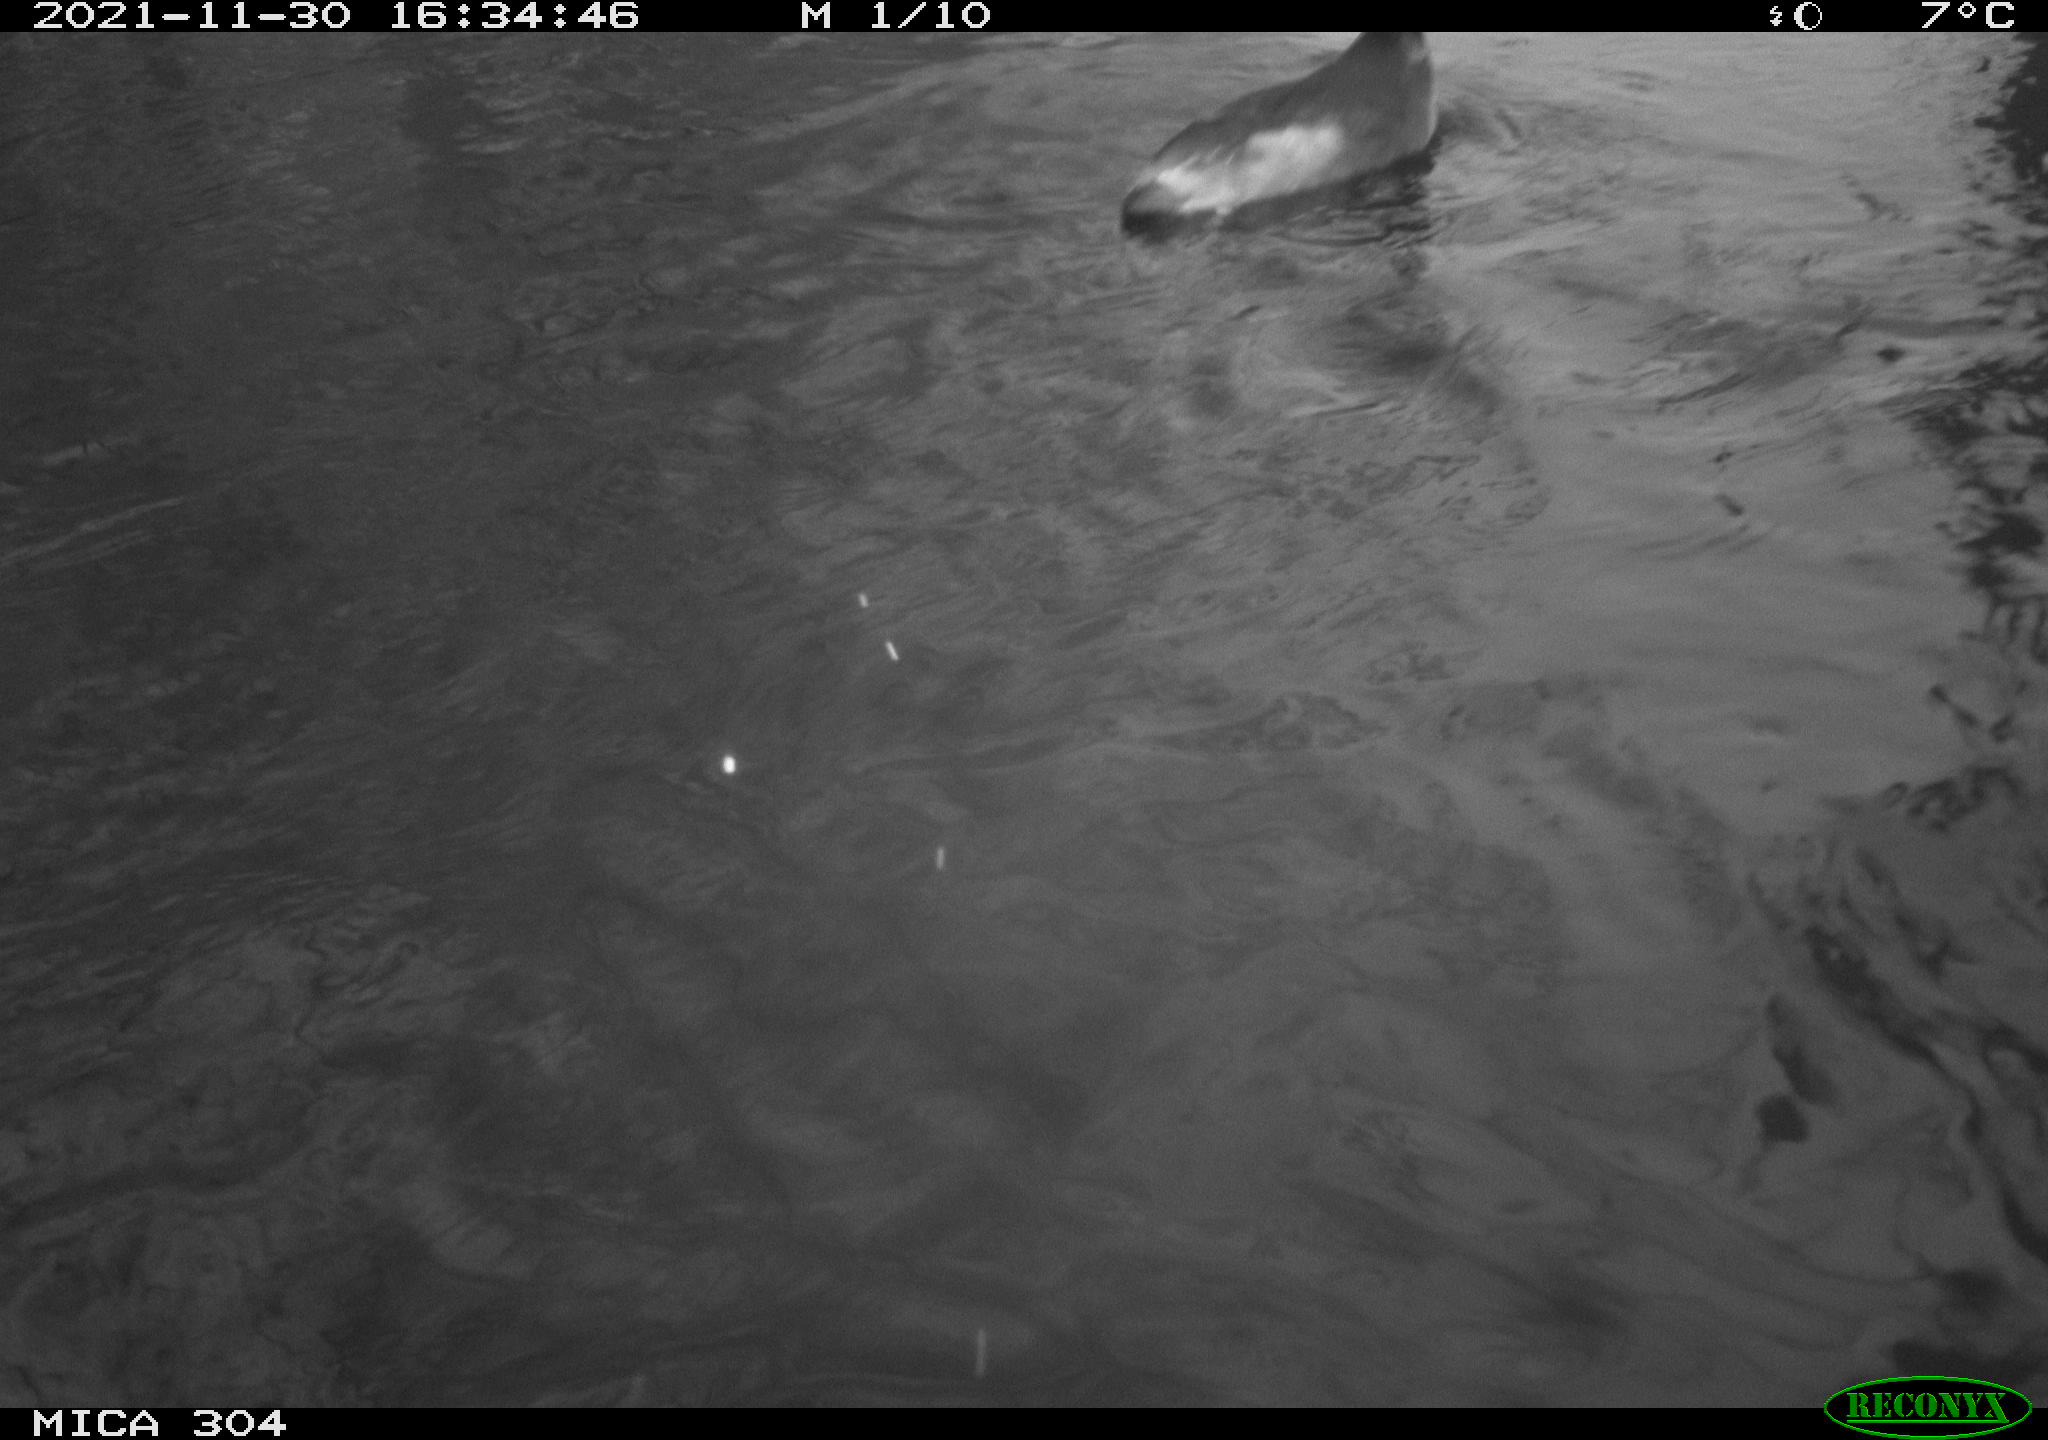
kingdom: Animalia
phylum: Chordata
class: Aves
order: Gruiformes
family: Rallidae
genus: Fulica
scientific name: Fulica atra
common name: Eurasian coot
